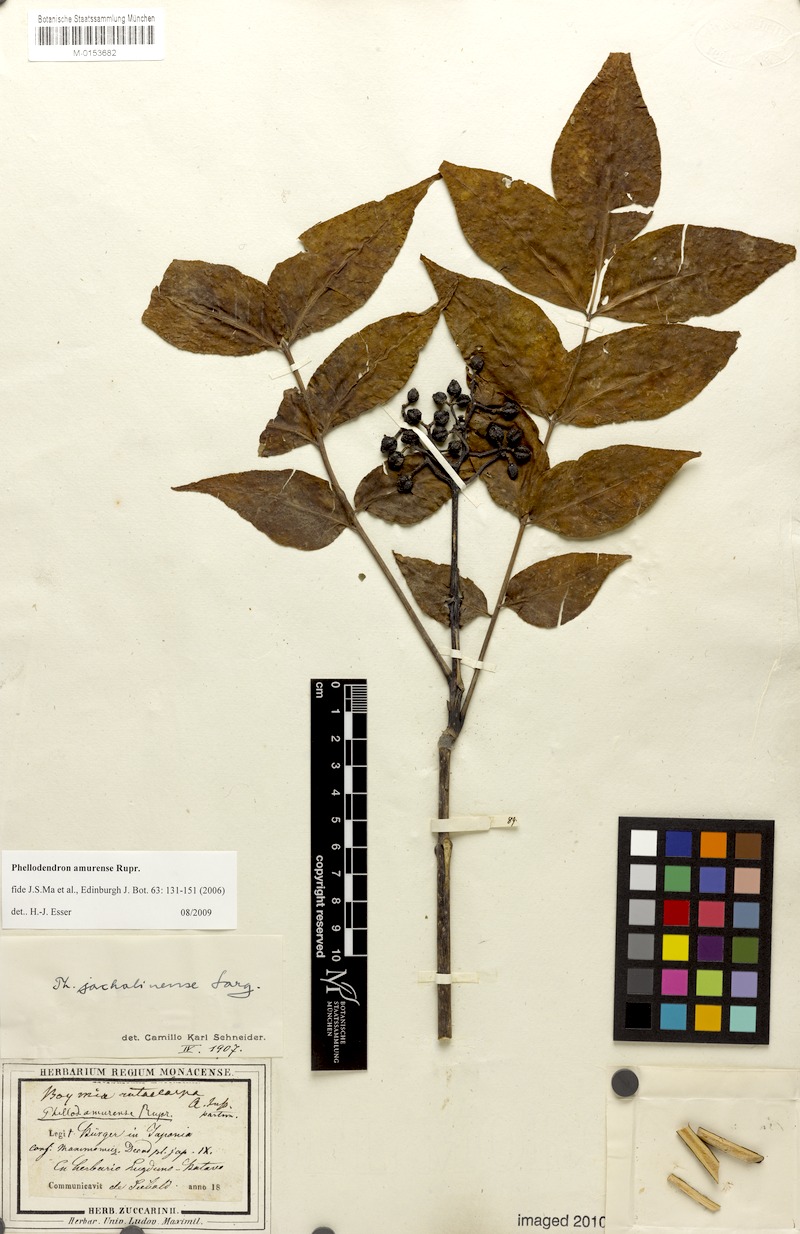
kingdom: Plantae
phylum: Tracheophyta
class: Magnoliopsida
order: Sapindales
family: Rutaceae
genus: Phellodendron
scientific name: Phellodendron amurense
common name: Amur corktree
